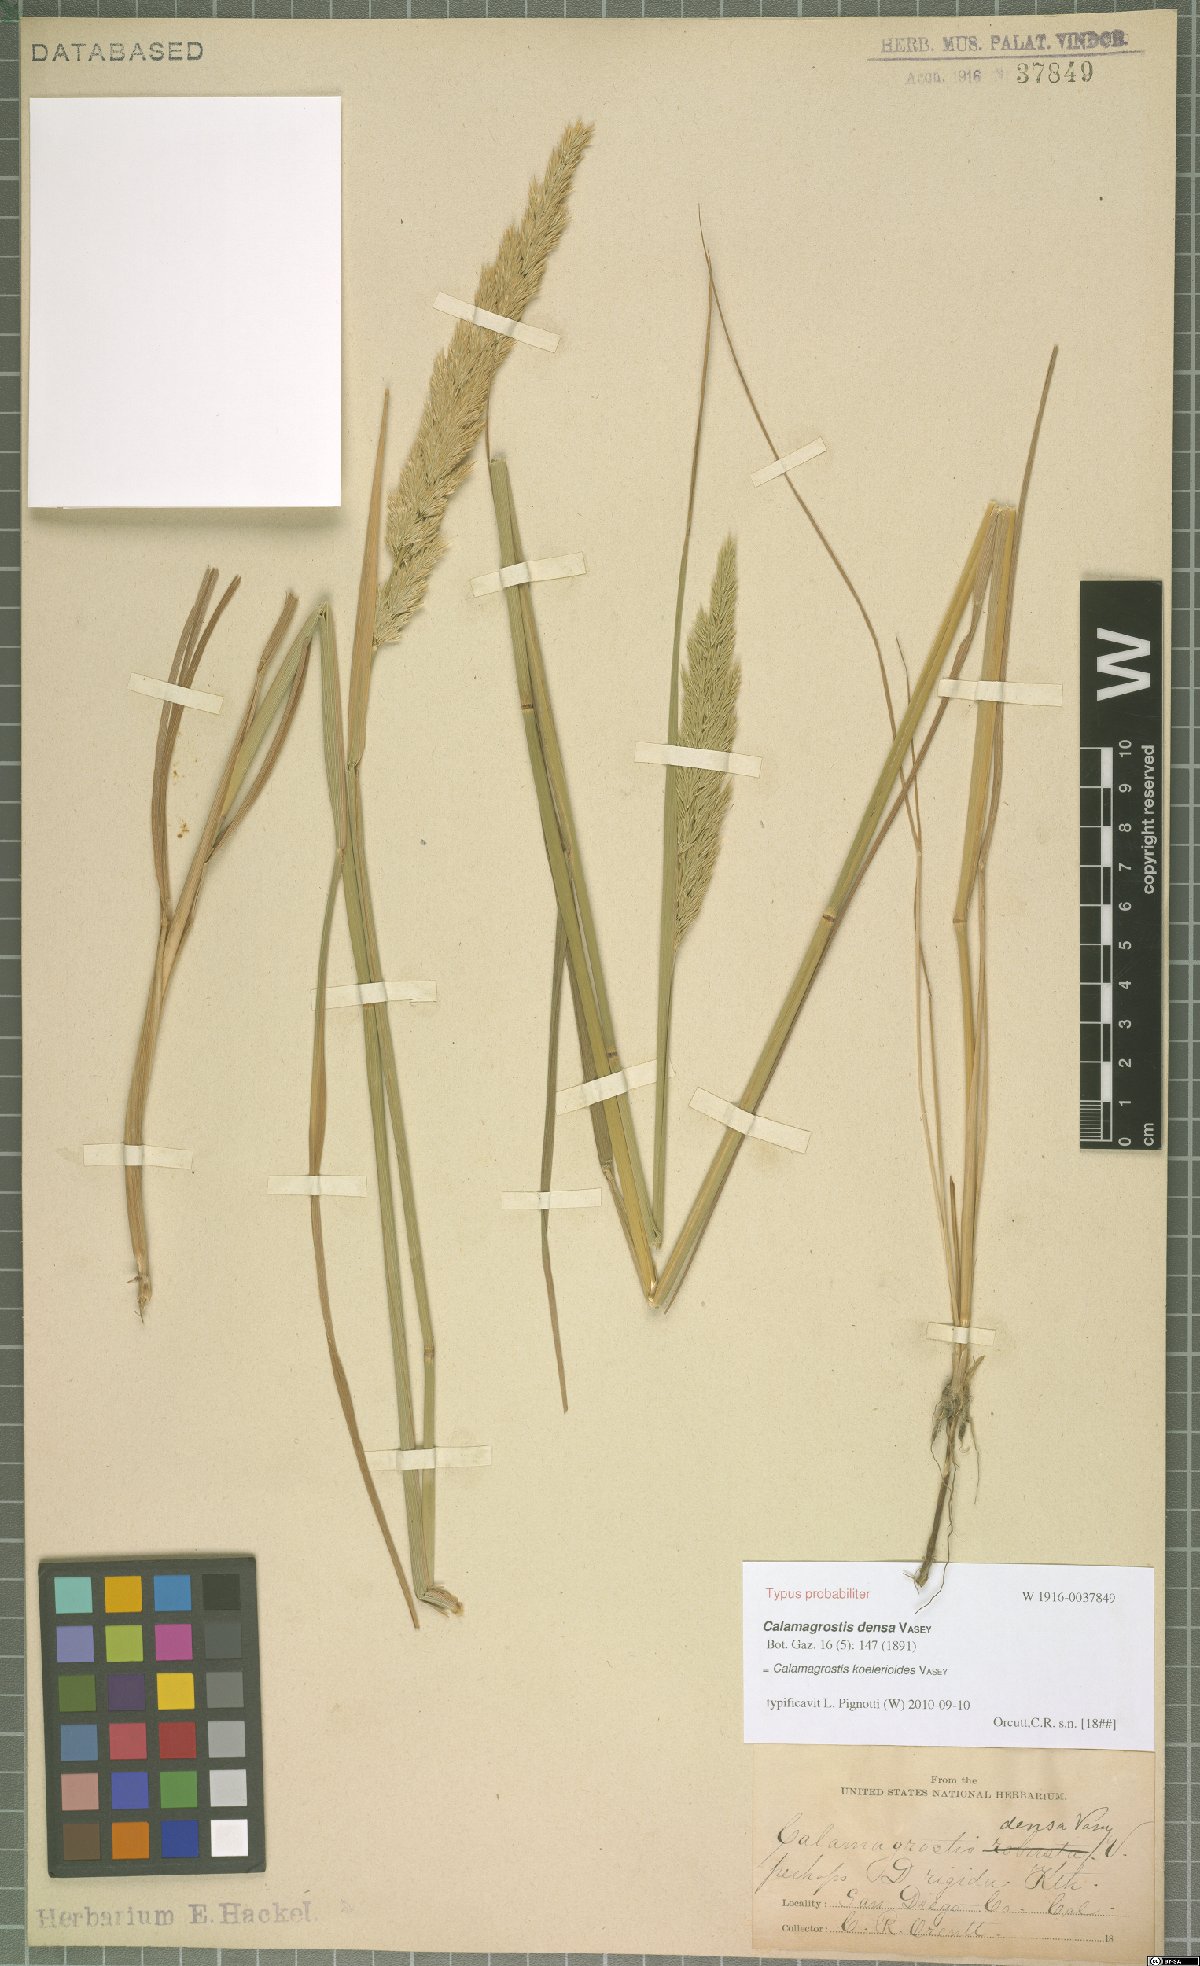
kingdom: Plantae
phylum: Tracheophyta
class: Liliopsida
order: Poales
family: Poaceae
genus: Calamagrostis
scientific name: Calamagrostis koelerioides
